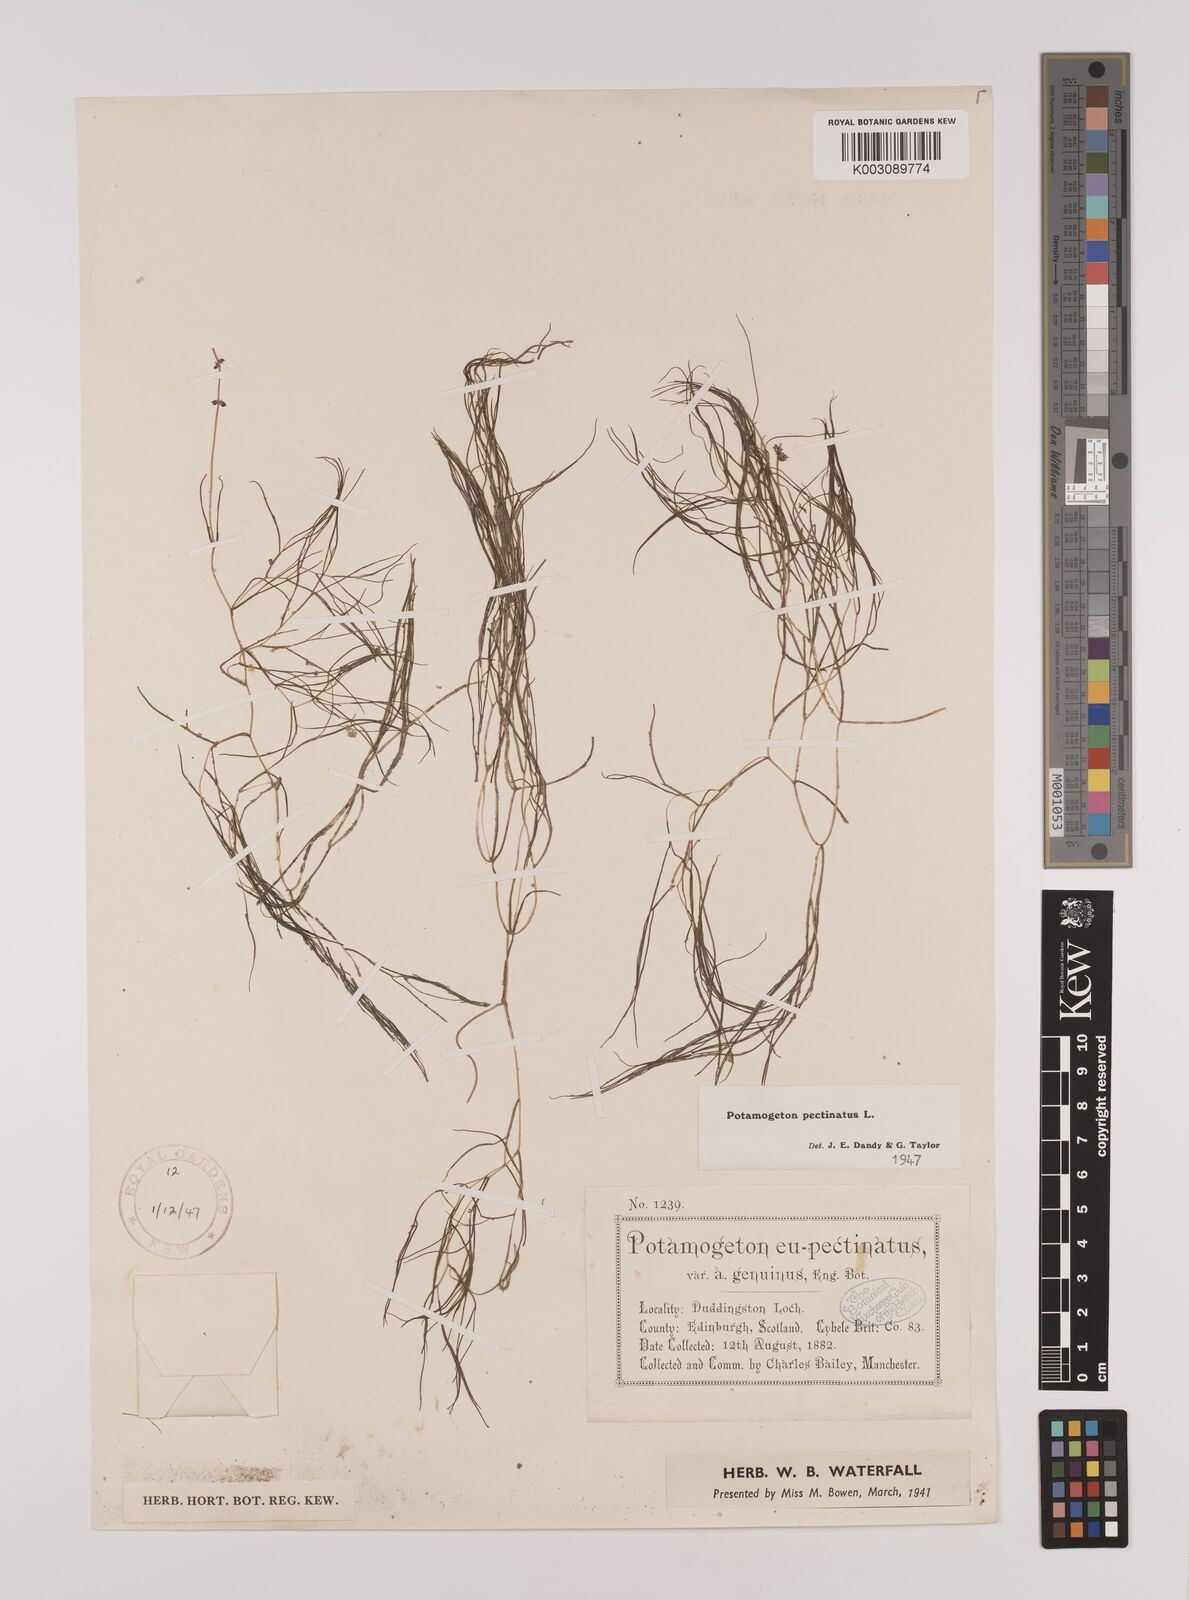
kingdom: Plantae
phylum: Tracheophyta
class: Liliopsida
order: Alismatales
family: Potamogetonaceae
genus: Stuckenia
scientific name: Stuckenia pectinata
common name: Sago pondweed
